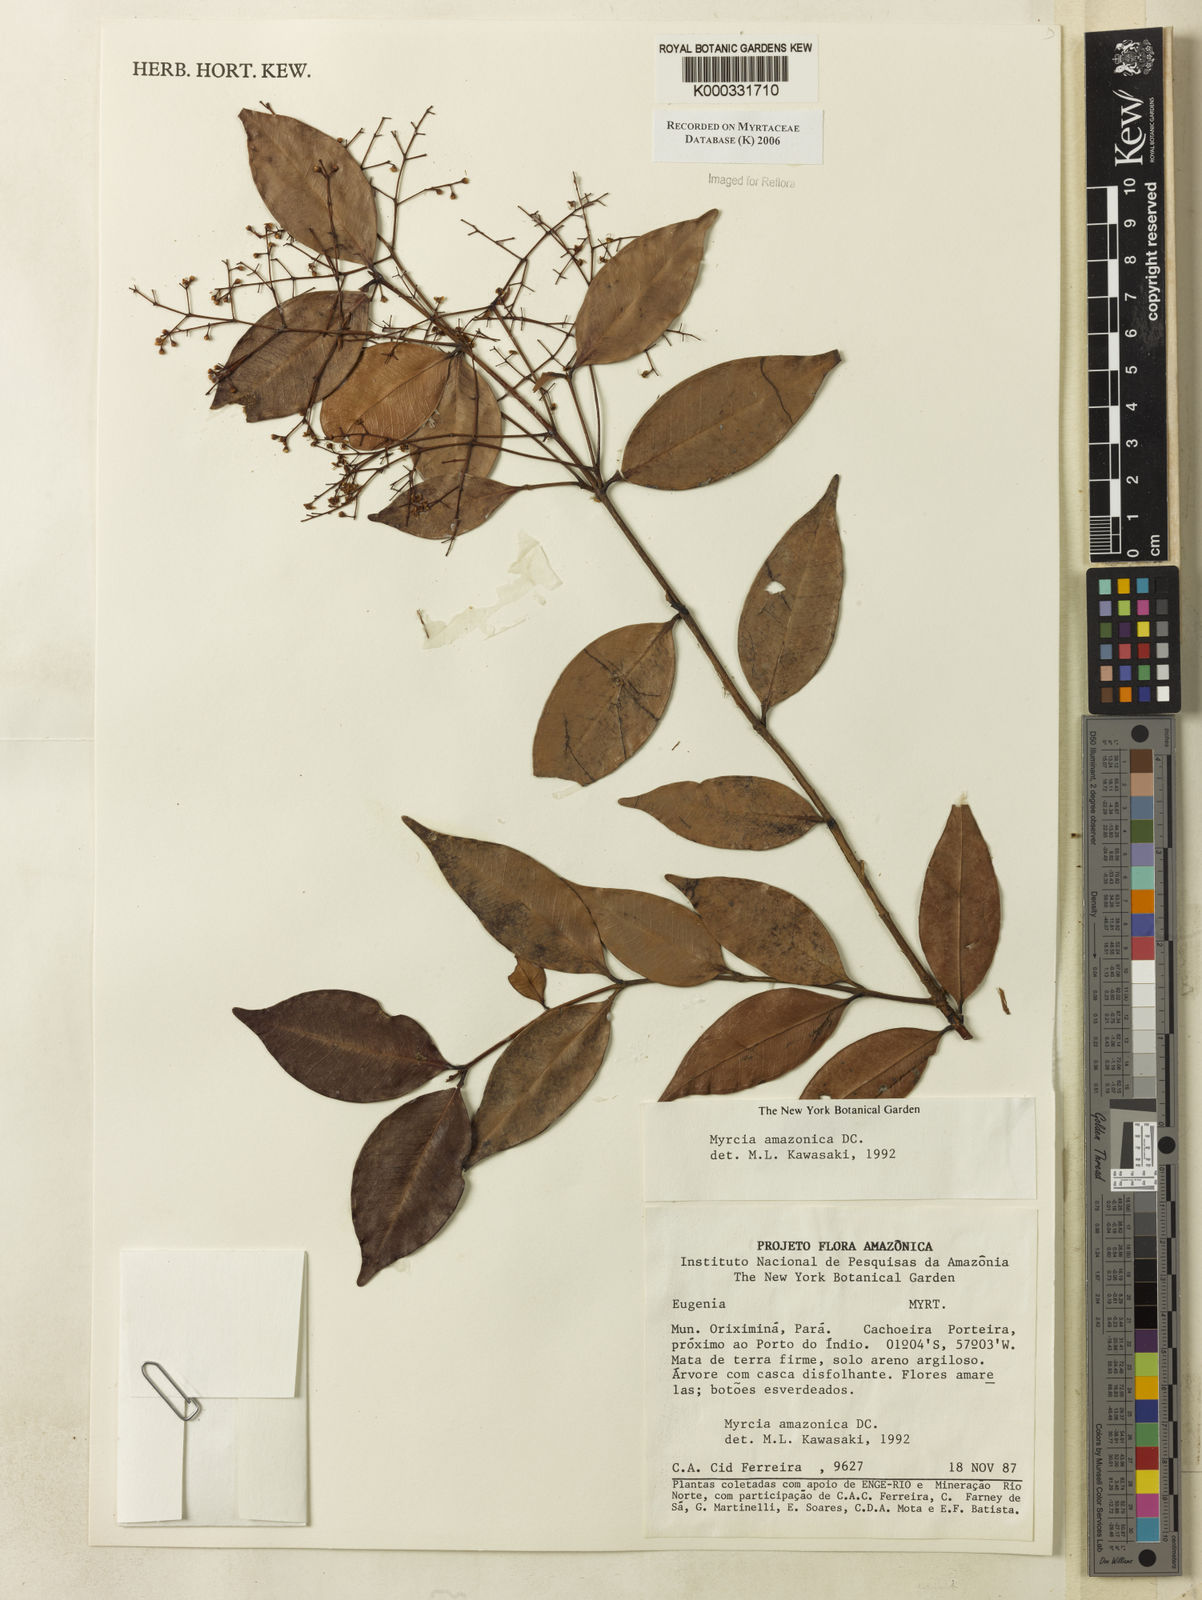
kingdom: Plantae
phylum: Tracheophyta
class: Magnoliopsida
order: Myrtales
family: Myrtaceae
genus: Myrcia
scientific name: Myrcia amazonica
